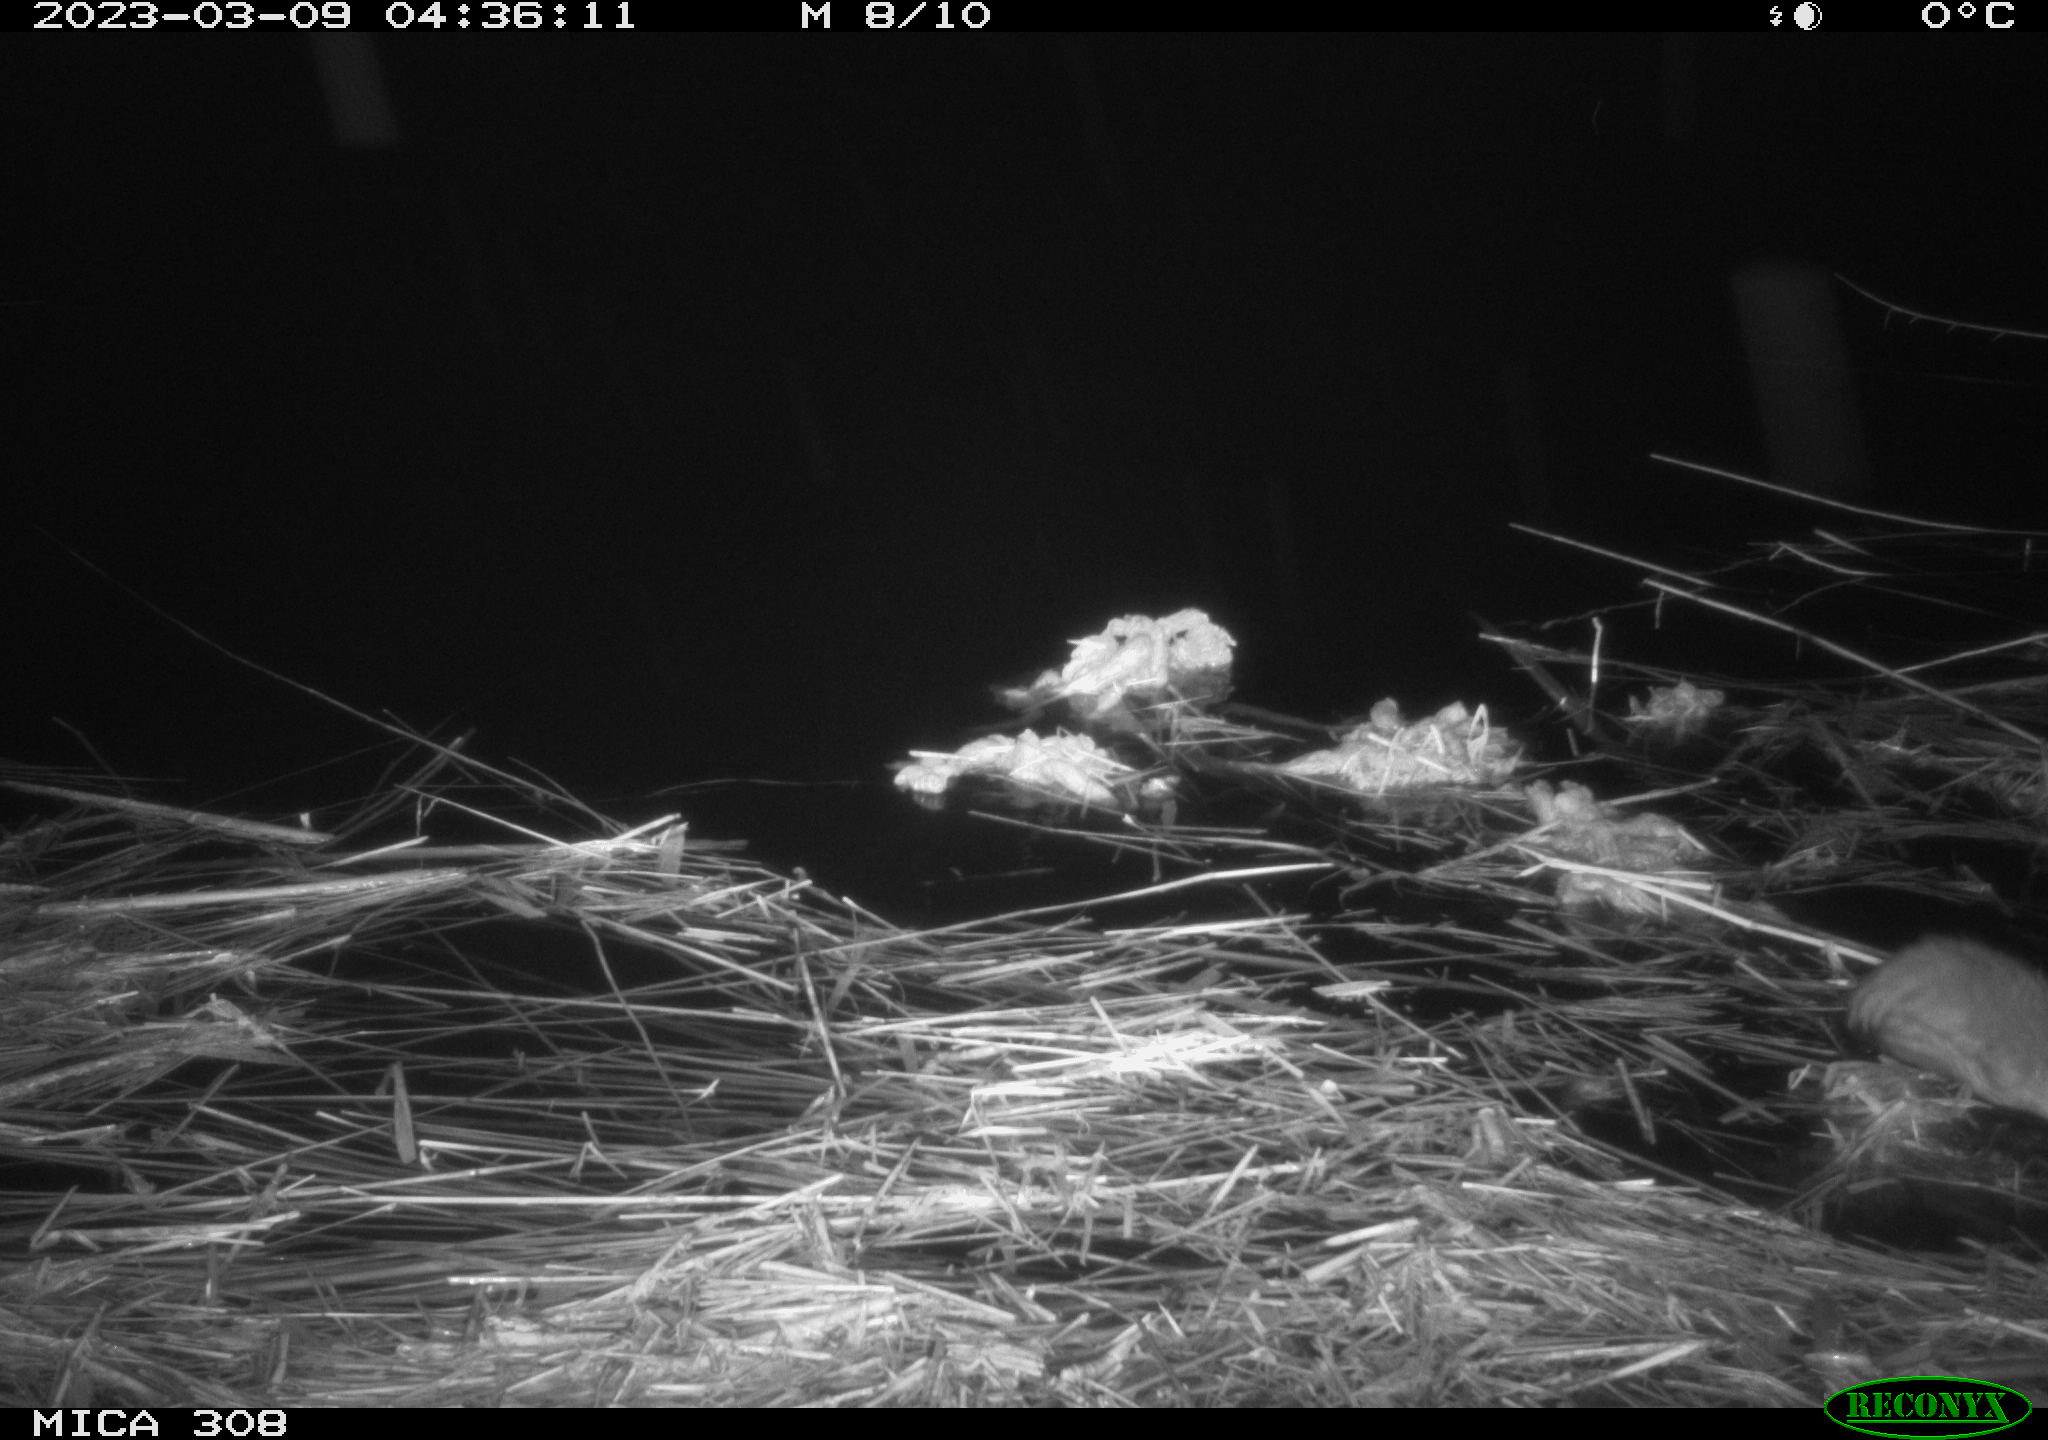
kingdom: Animalia
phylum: Chordata
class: Mammalia
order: Rodentia
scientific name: Rodentia
